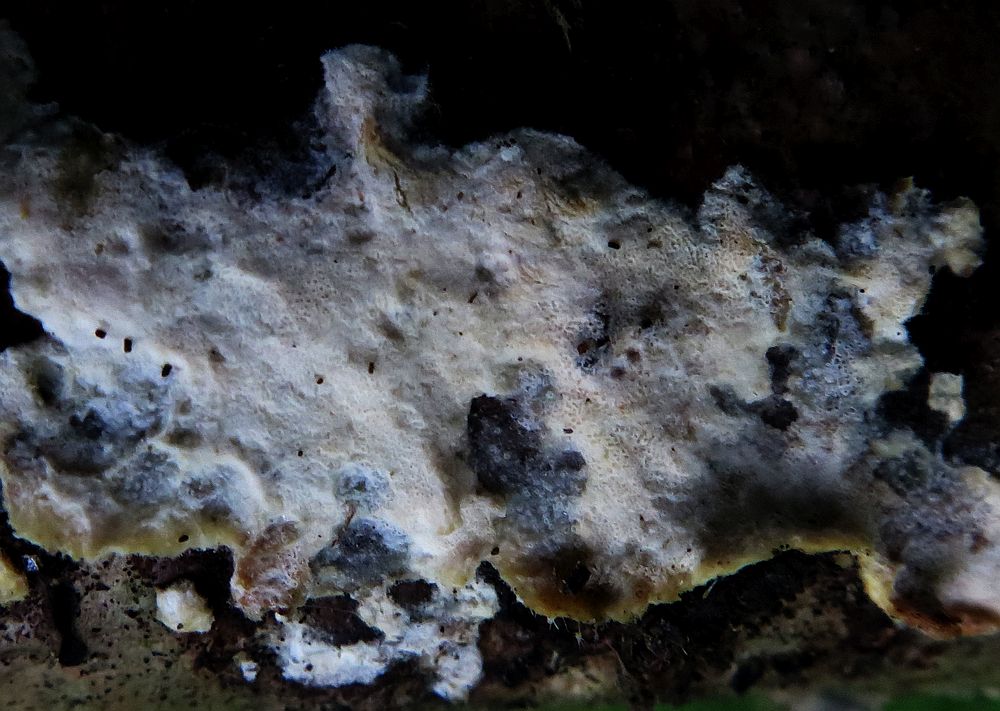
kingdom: Fungi
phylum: Ascomycota
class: Sordariomycetes
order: Hypocreales
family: Hypocreaceae
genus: Protocrea
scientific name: Protocrea farinosa
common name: krystalpore-kødkerne
